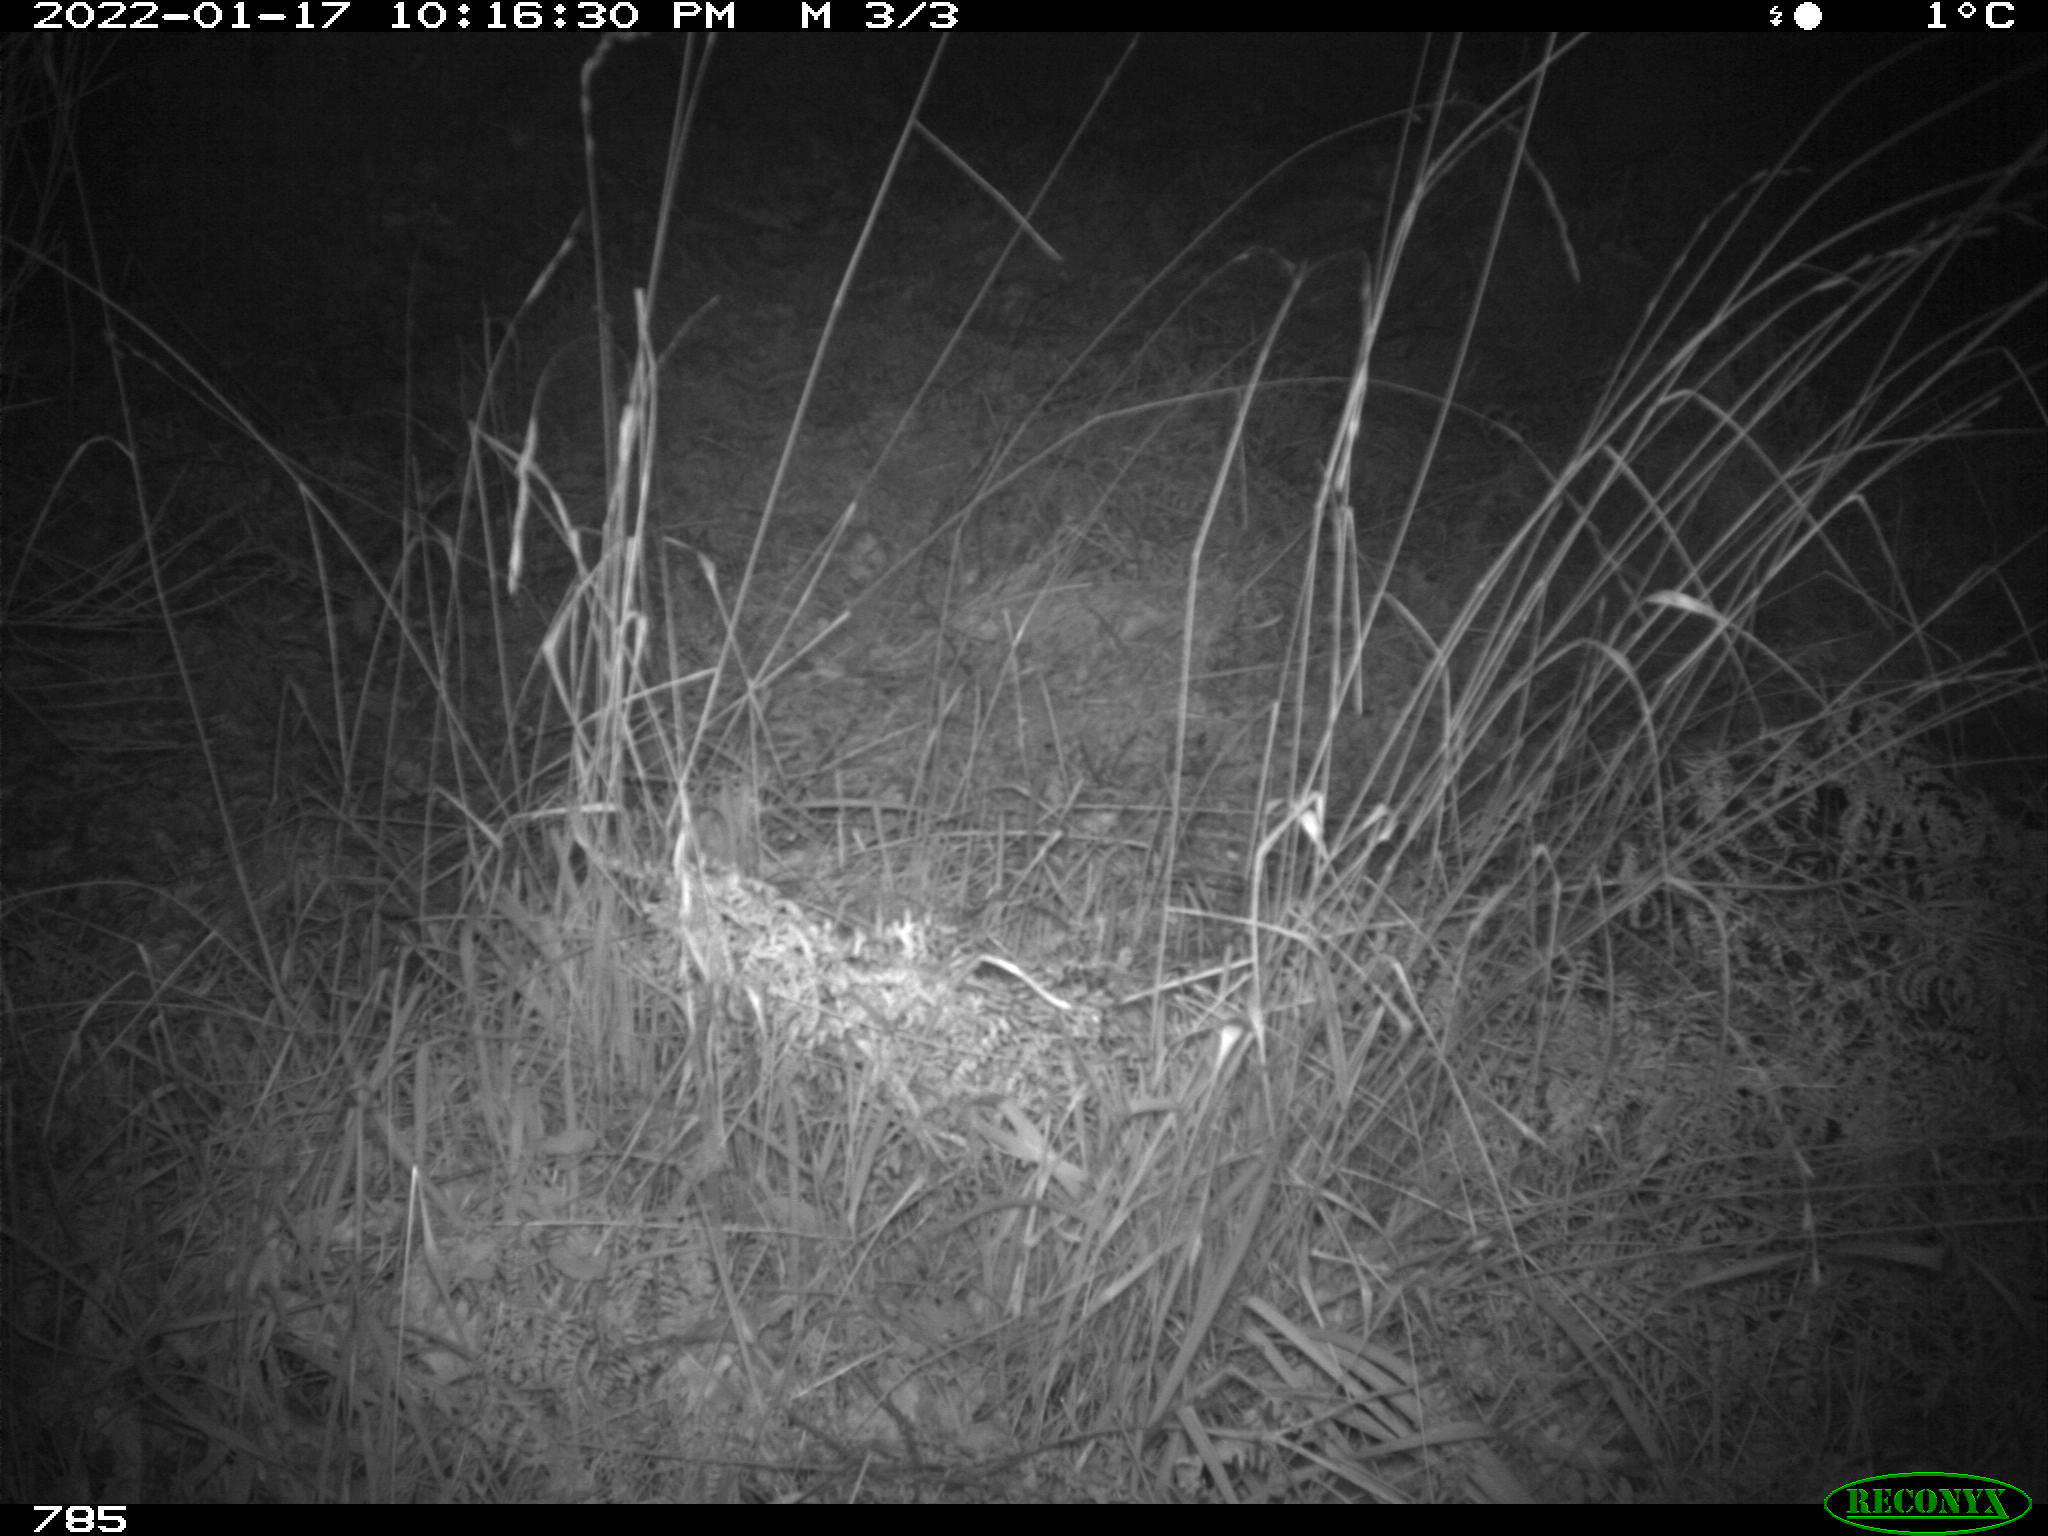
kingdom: Animalia
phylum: Chordata
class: Mammalia
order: Carnivora
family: Canidae
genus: Vulpes
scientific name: Vulpes vulpes
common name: Red fox
